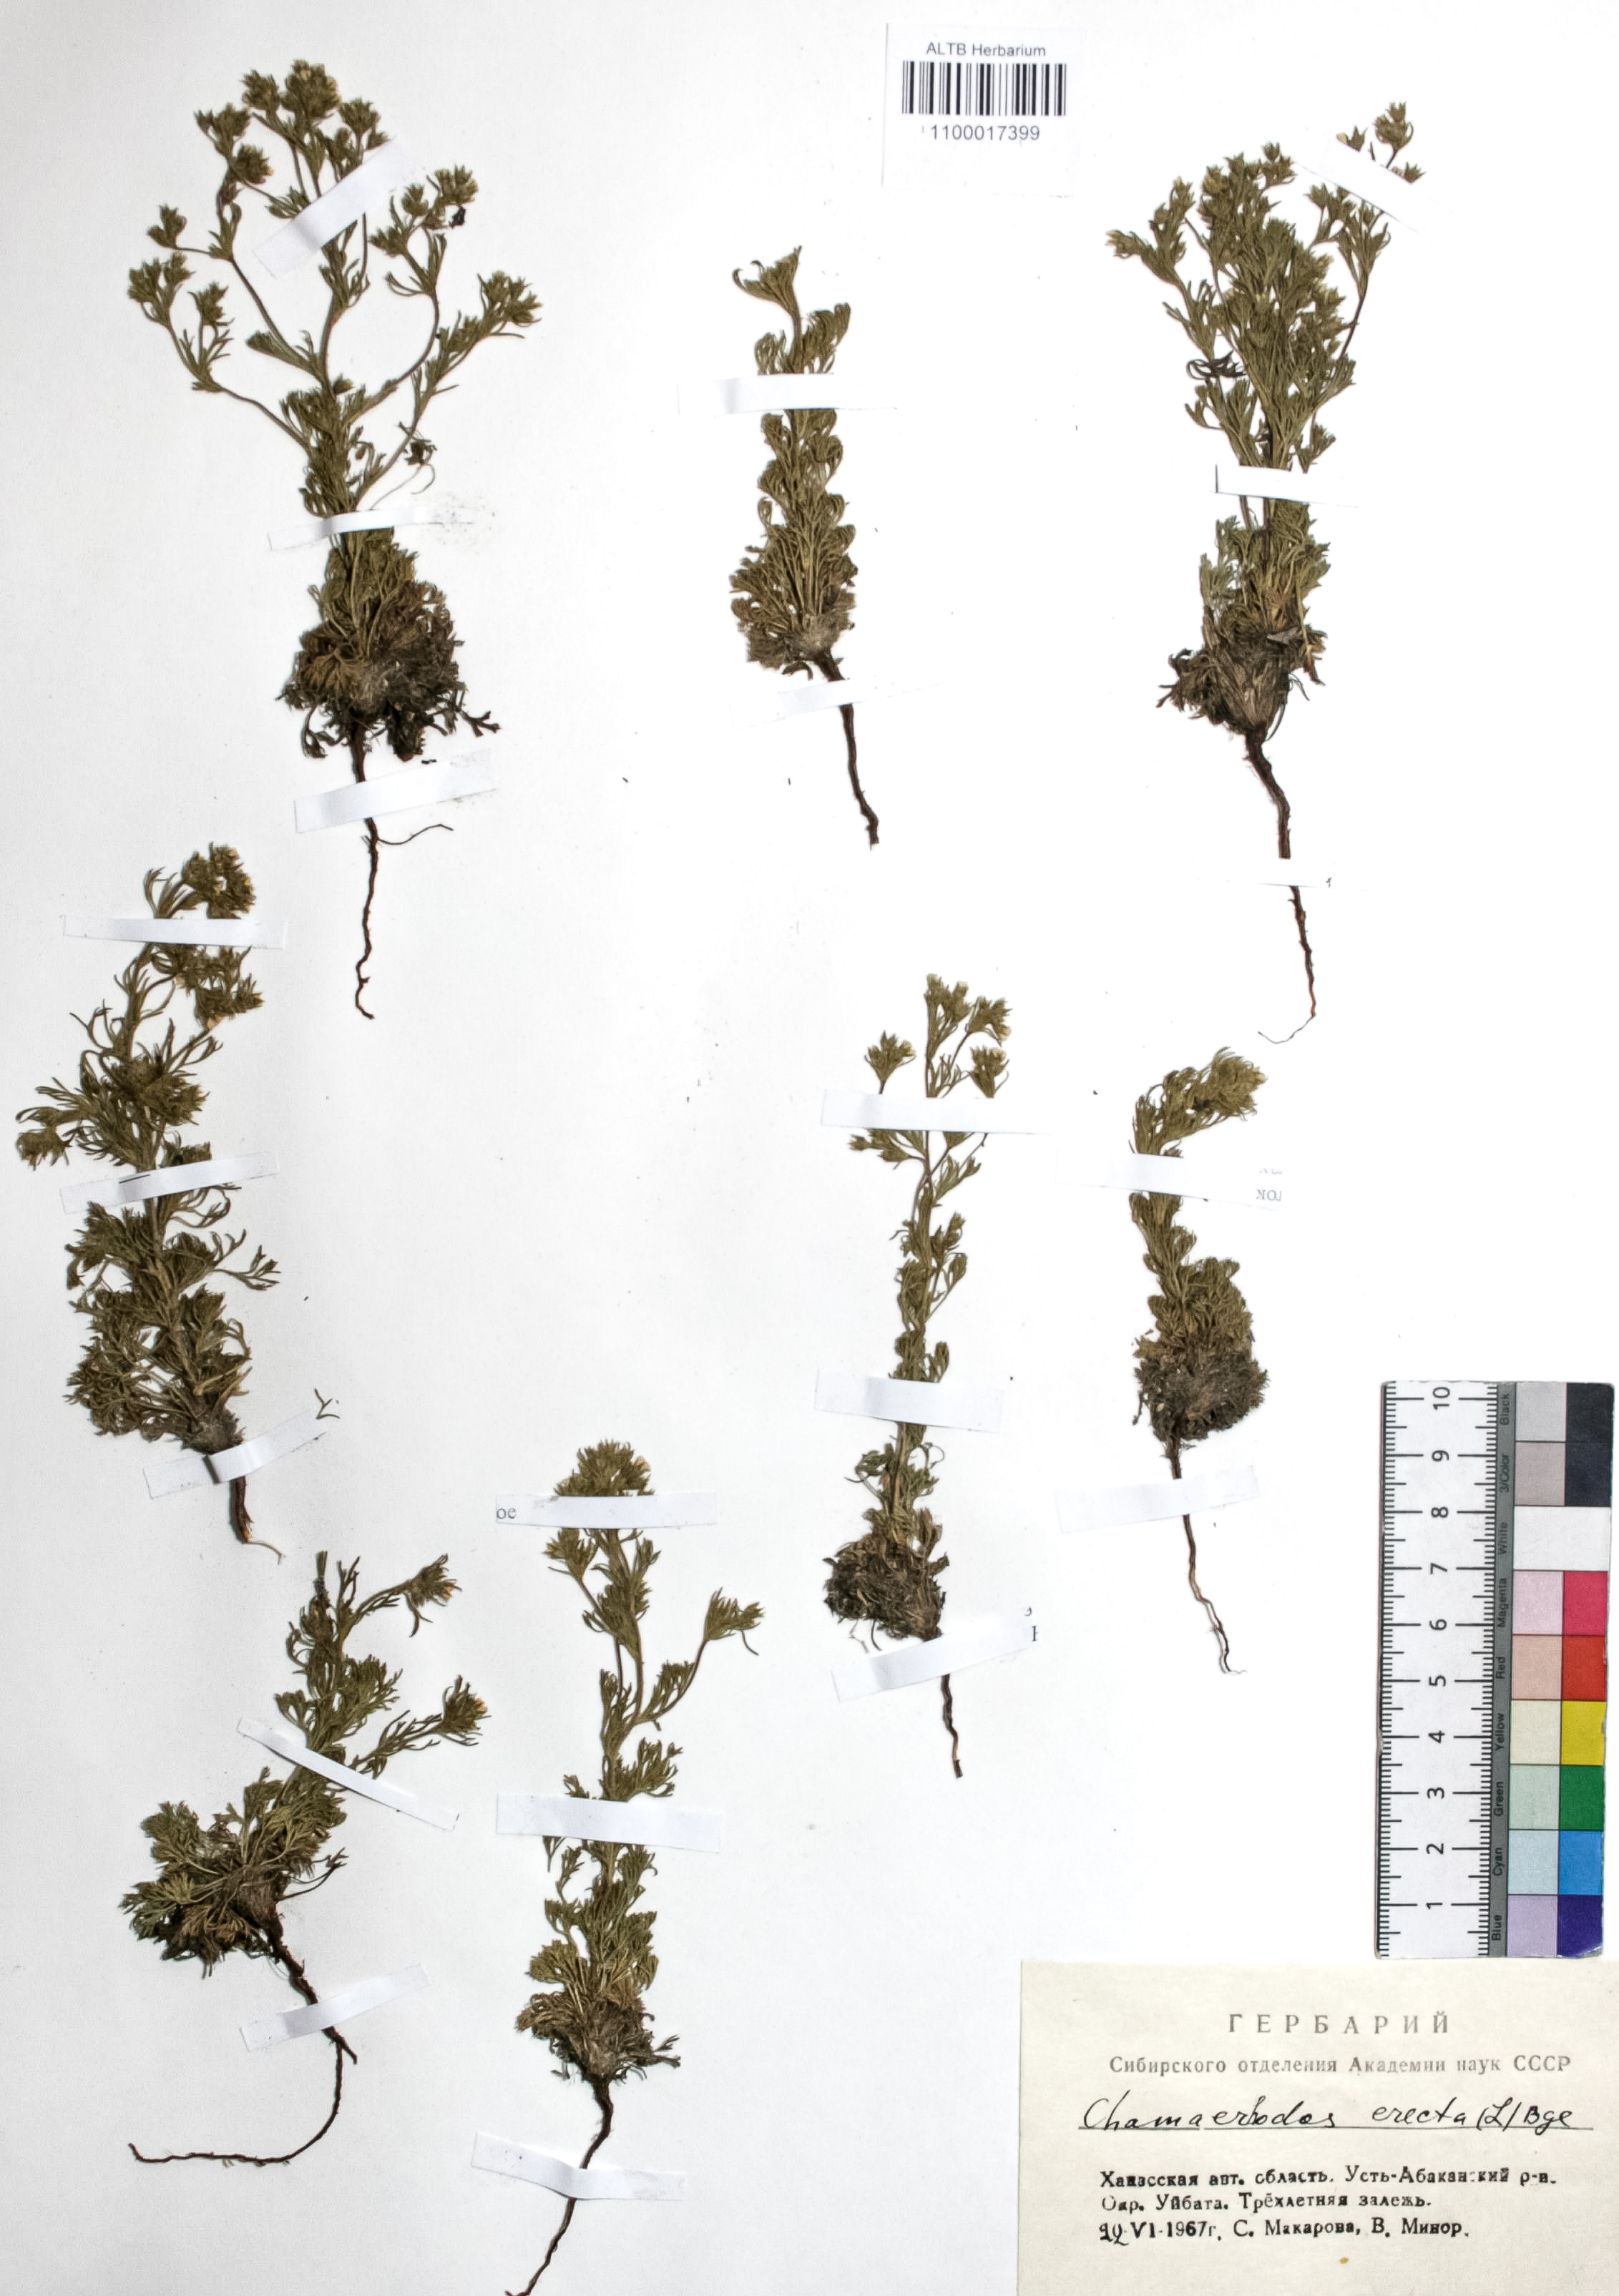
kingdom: Plantae
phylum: Tracheophyta
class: Magnoliopsida
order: Rosales
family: Rosaceae
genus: Chamaerhodos
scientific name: Chamaerhodos erecta
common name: American chamaerhodos
